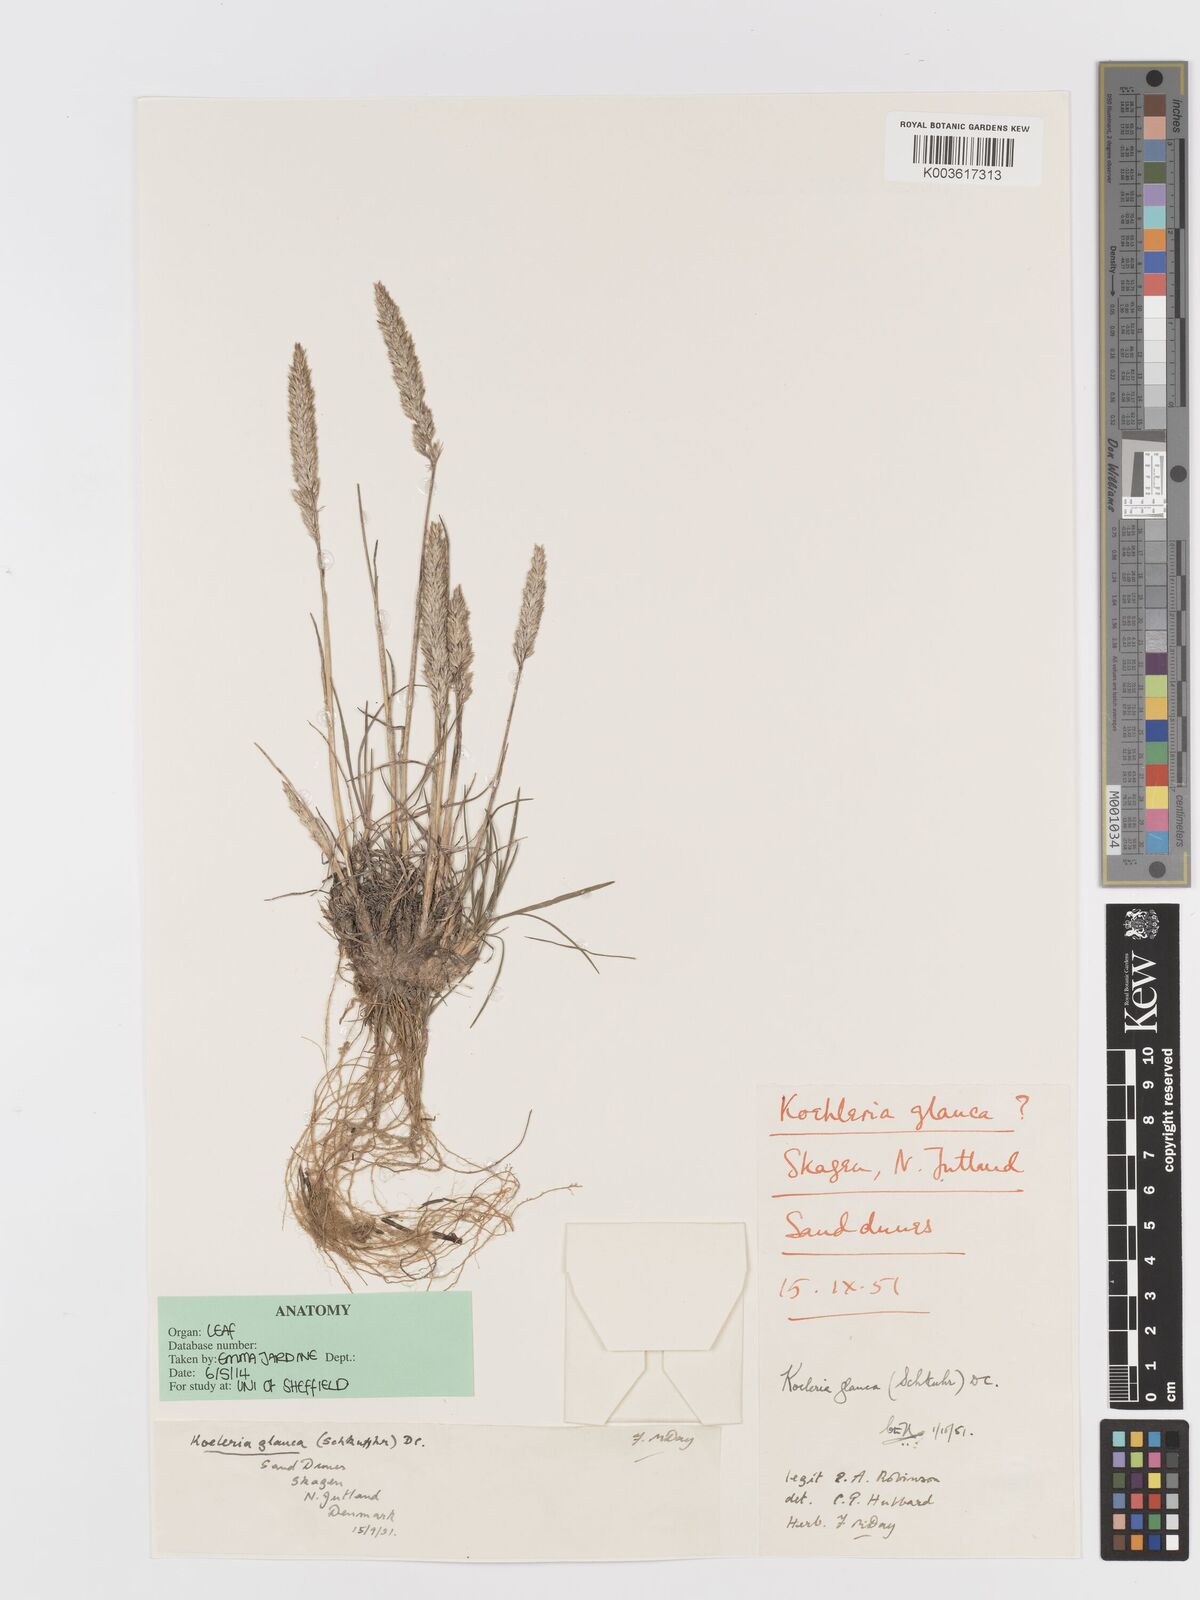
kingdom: Plantae
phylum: Tracheophyta
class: Liliopsida
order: Poales
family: Poaceae
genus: Koeleria
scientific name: Koeleria glauca
